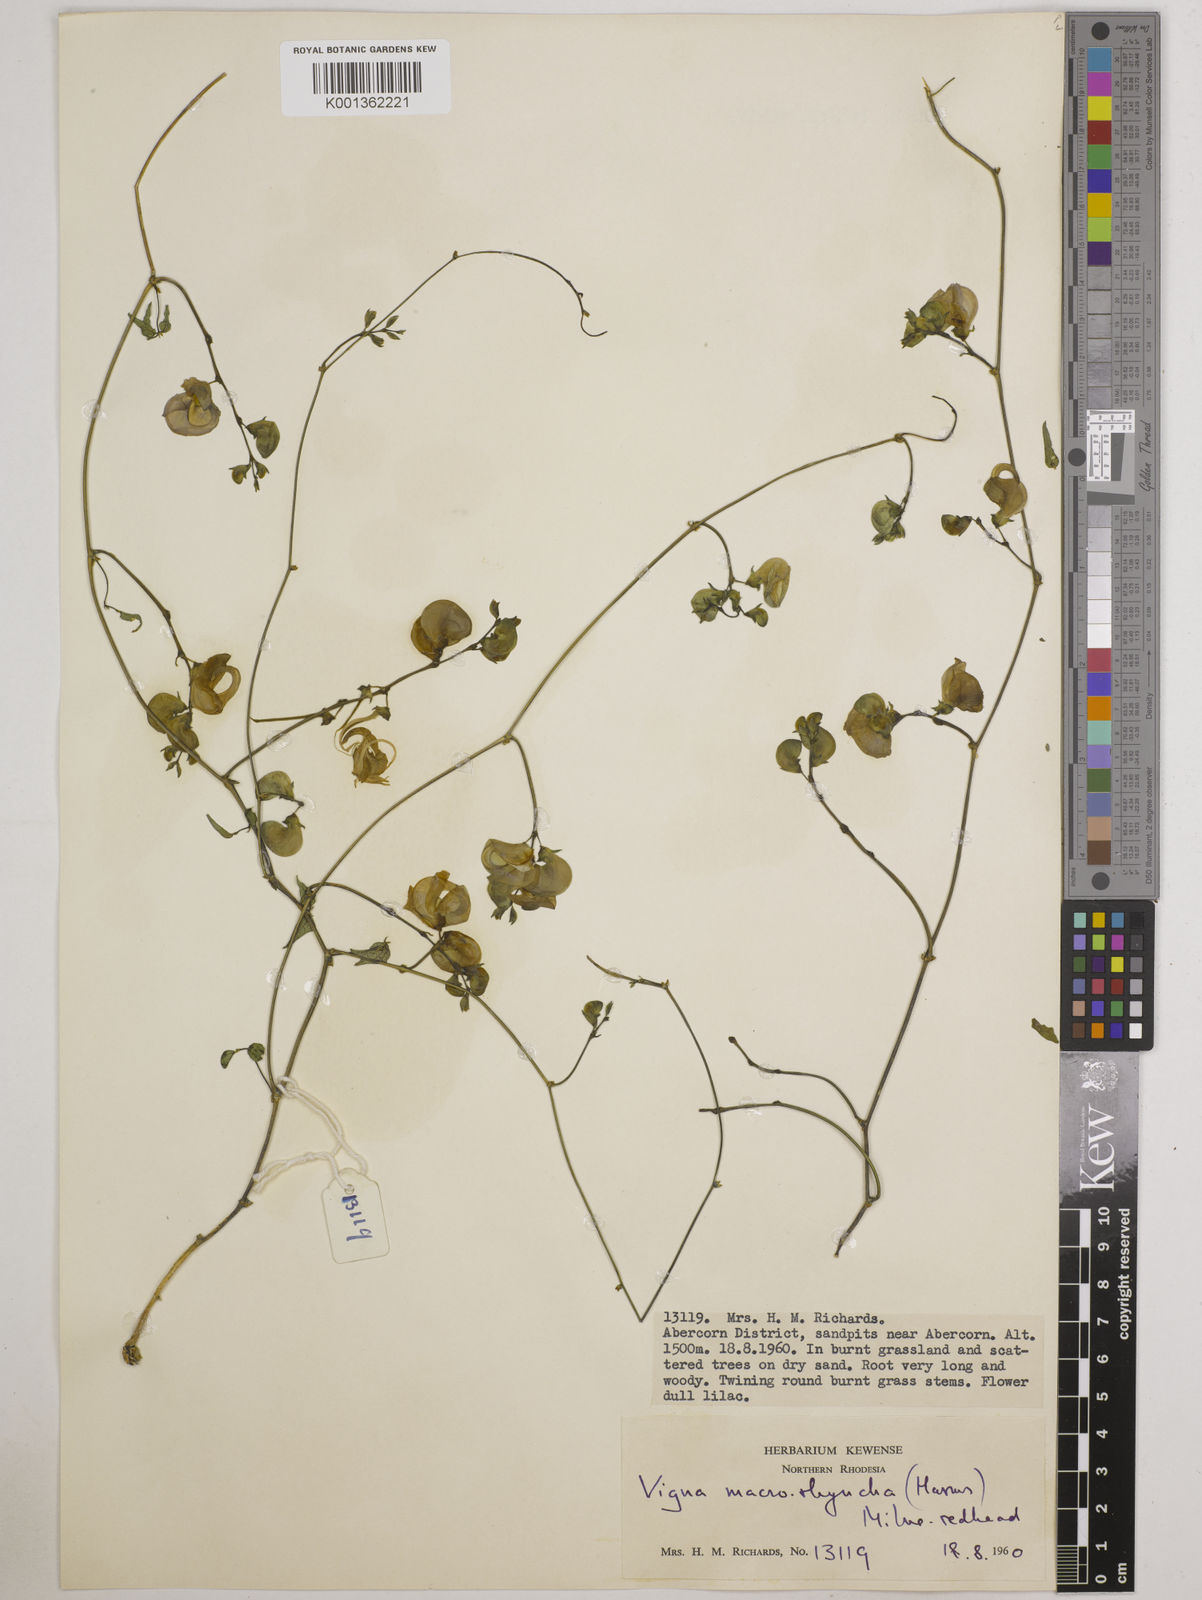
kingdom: Plantae
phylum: Tracheophyta
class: Magnoliopsida
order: Fabales
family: Fabaceae
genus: Wajira
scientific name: Wajira grahamiana
